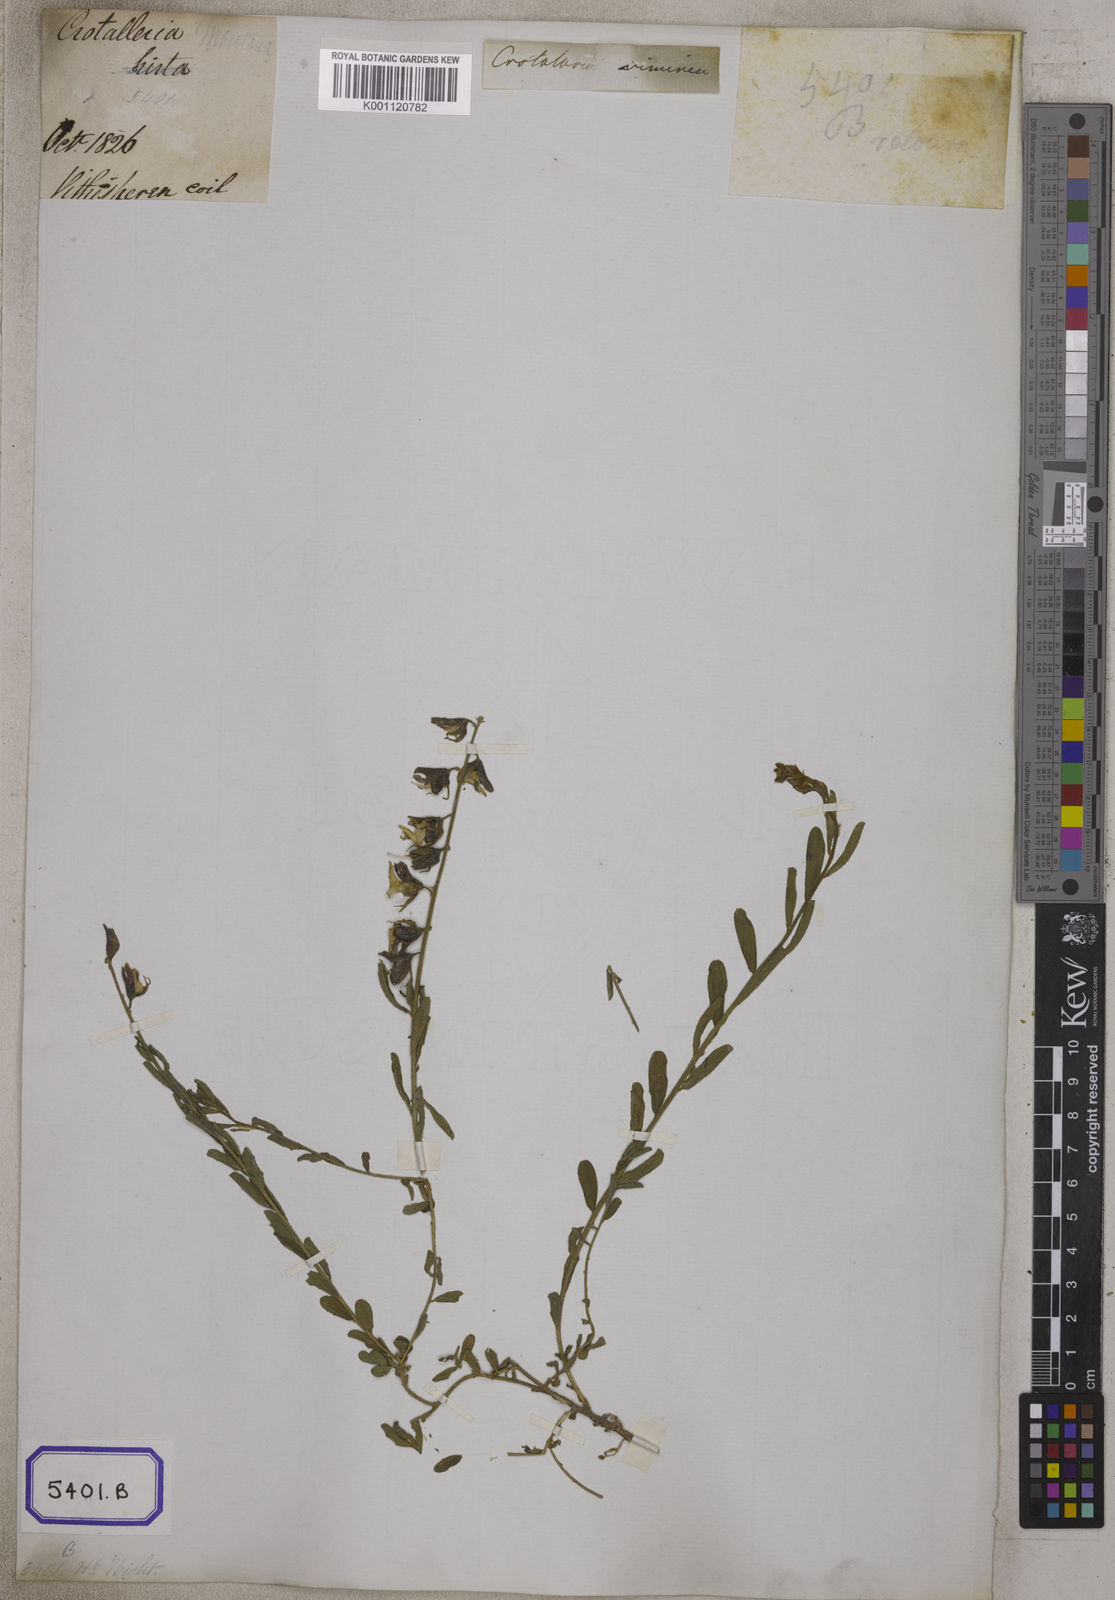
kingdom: Plantae
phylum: Tracheophyta
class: Magnoliopsida
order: Fabales
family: Fabaceae
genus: Crotalaria
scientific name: Crotalaria albida
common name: Taiwan crotalaria
